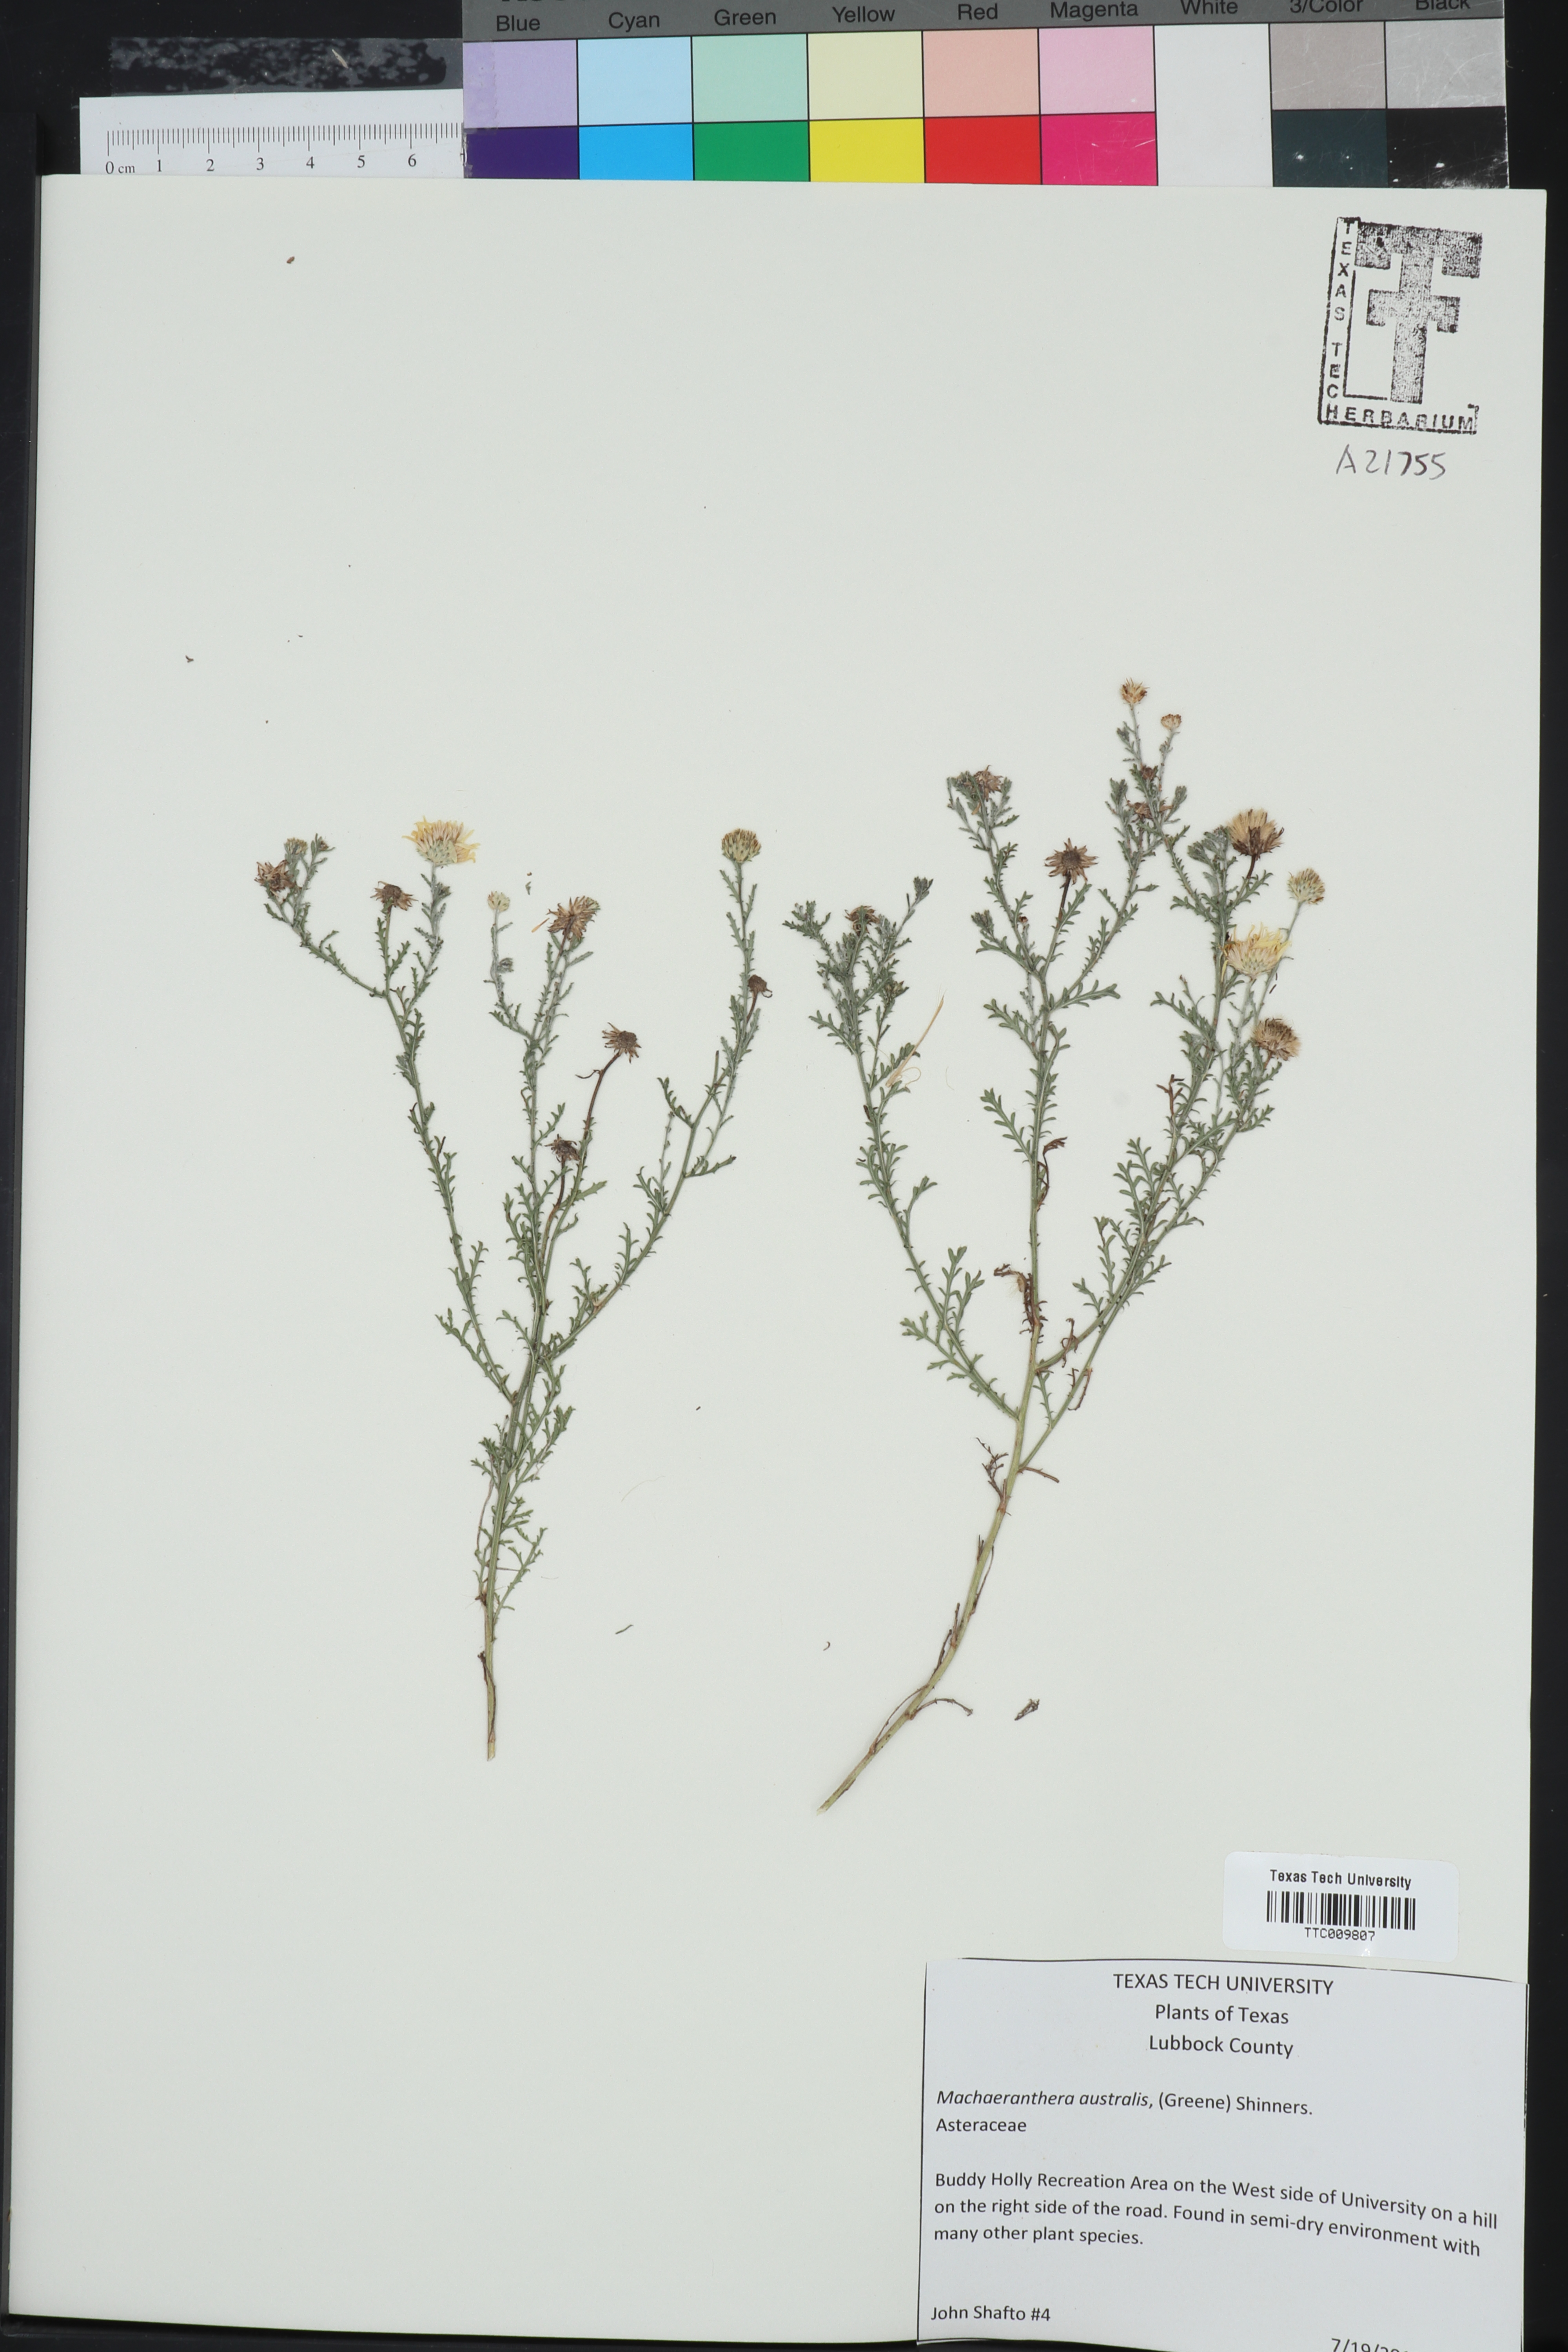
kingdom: Plantae
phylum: Tracheophyta
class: Magnoliopsida
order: Asterales
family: Asteraceae
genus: Xanthisma
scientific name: Xanthisma spinulosum
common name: Spiny goldenweed
